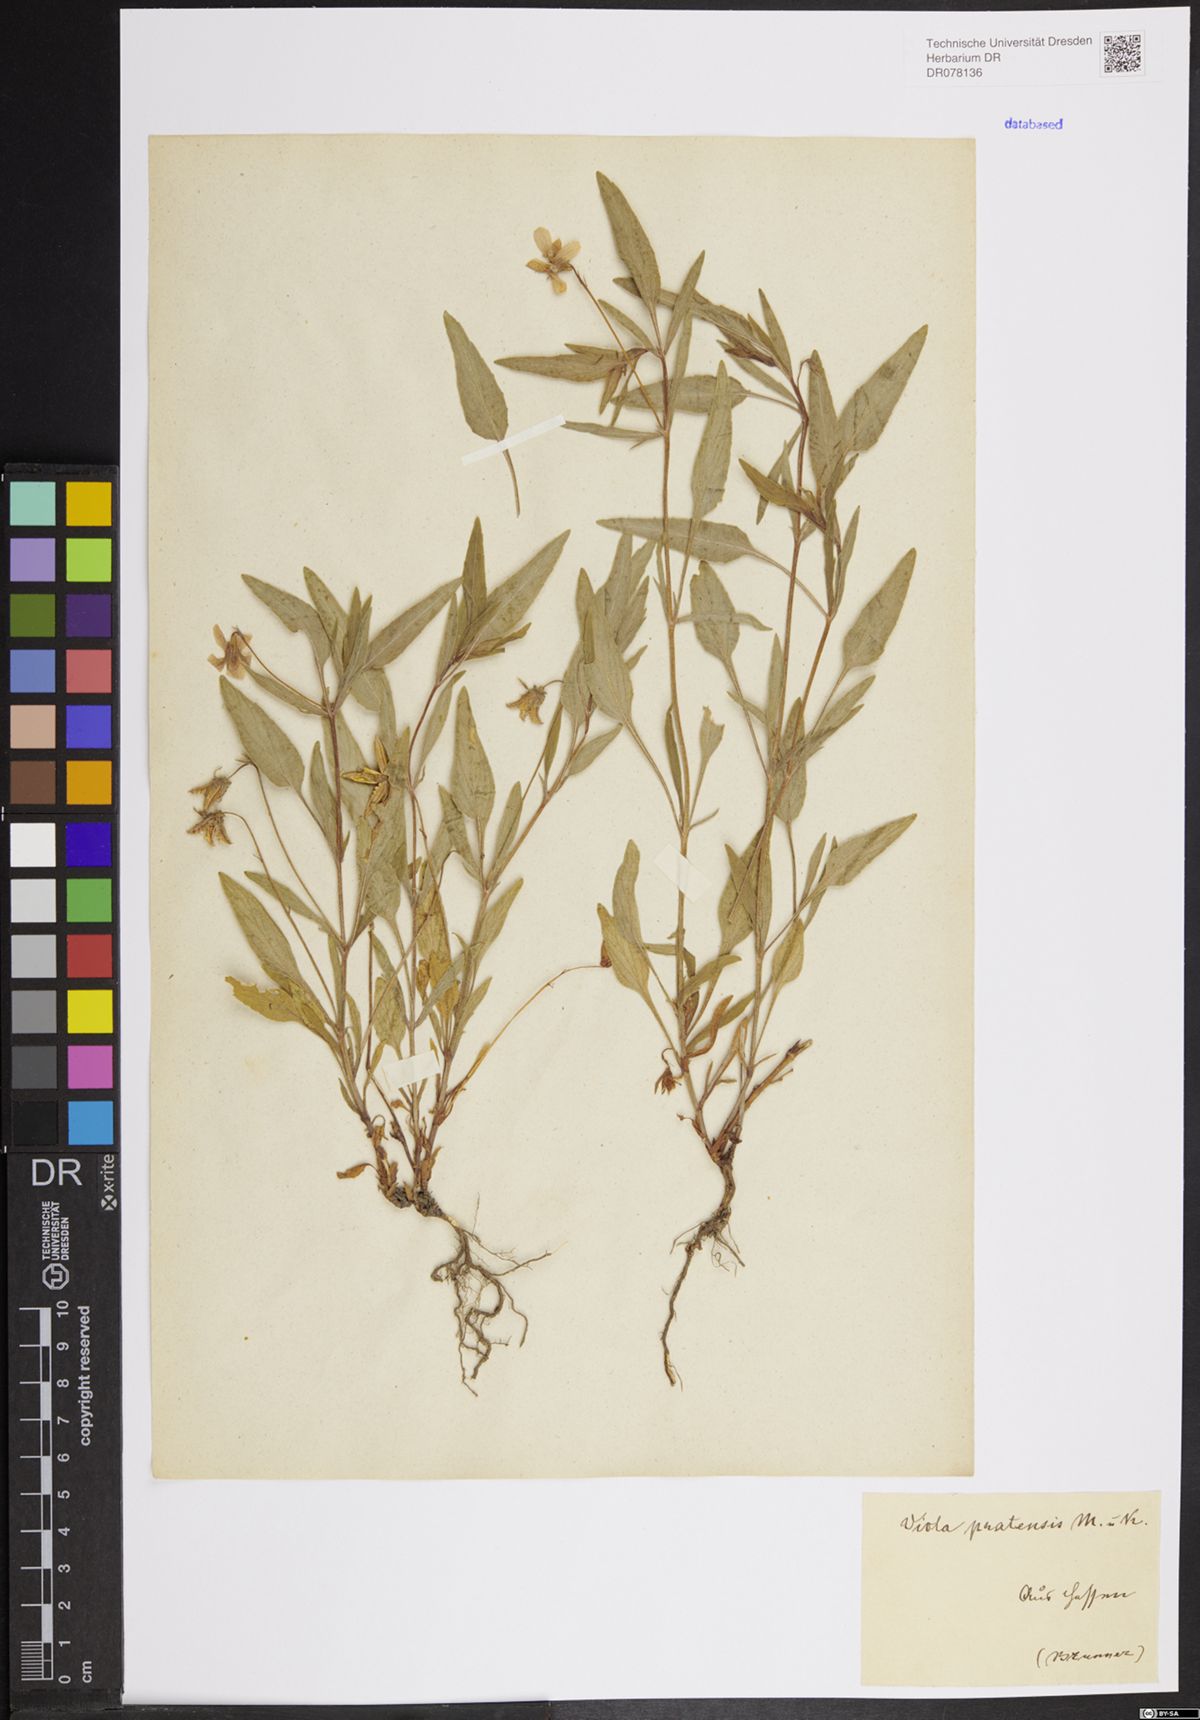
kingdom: Plantae
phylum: Tracheophyta
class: Magnoliopsida
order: Malpighiales
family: Violaceae
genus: Viola
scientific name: Viola pumila
